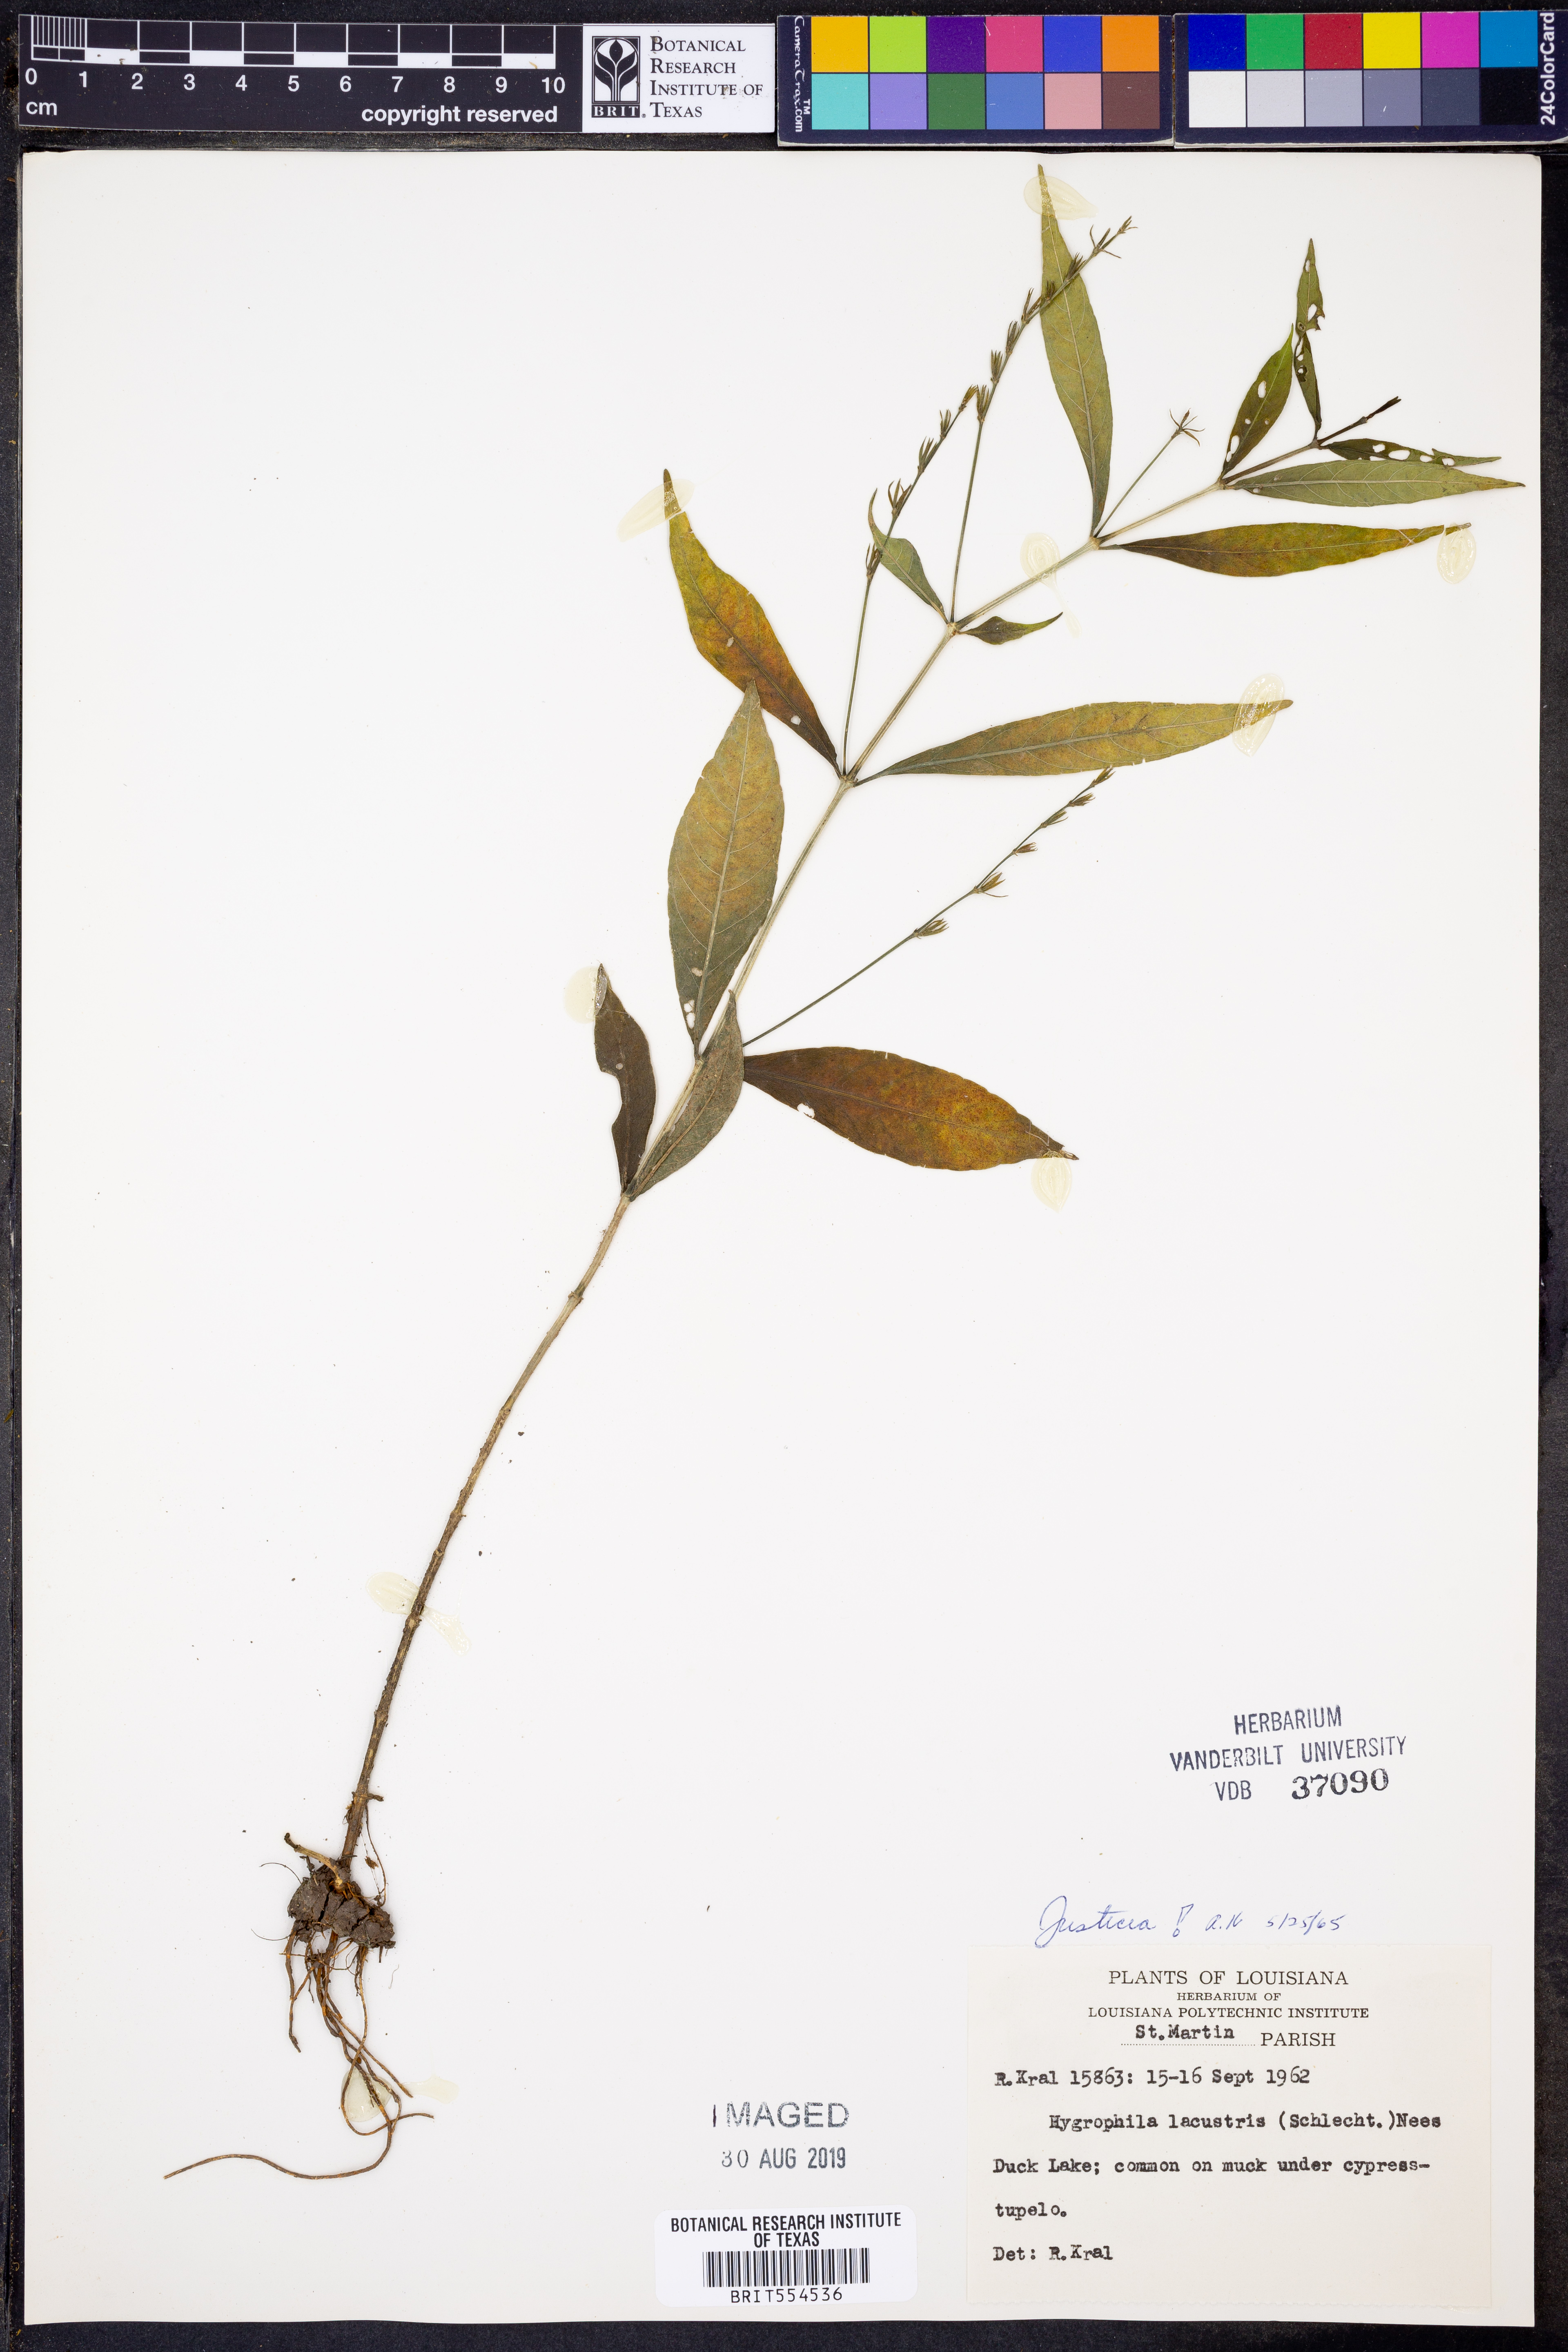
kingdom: Plantae
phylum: Tracheophyta
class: Magnoliopsida
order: Lamiales
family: Acanthaceae
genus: Justicia
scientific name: Justicia
